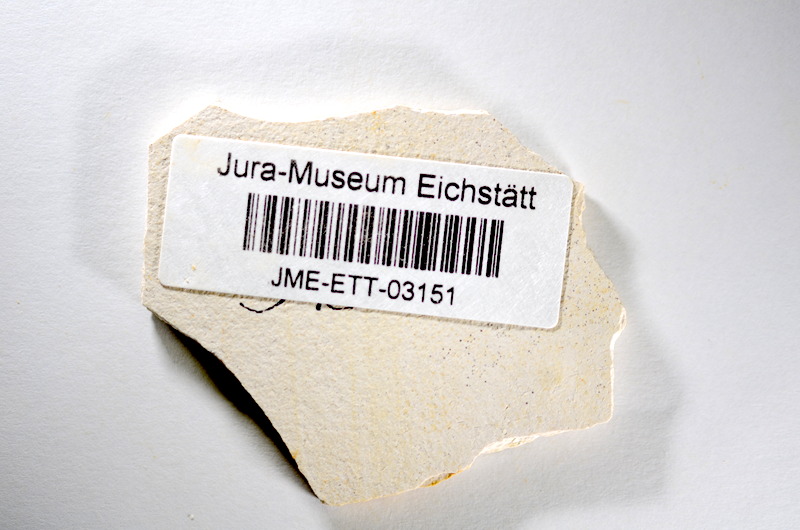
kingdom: Animalia
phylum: Chordata
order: Salmoniformes
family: Orthogonikleithridae
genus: Orthogonikleithrus
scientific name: Orthogonikleithrus hoelli
